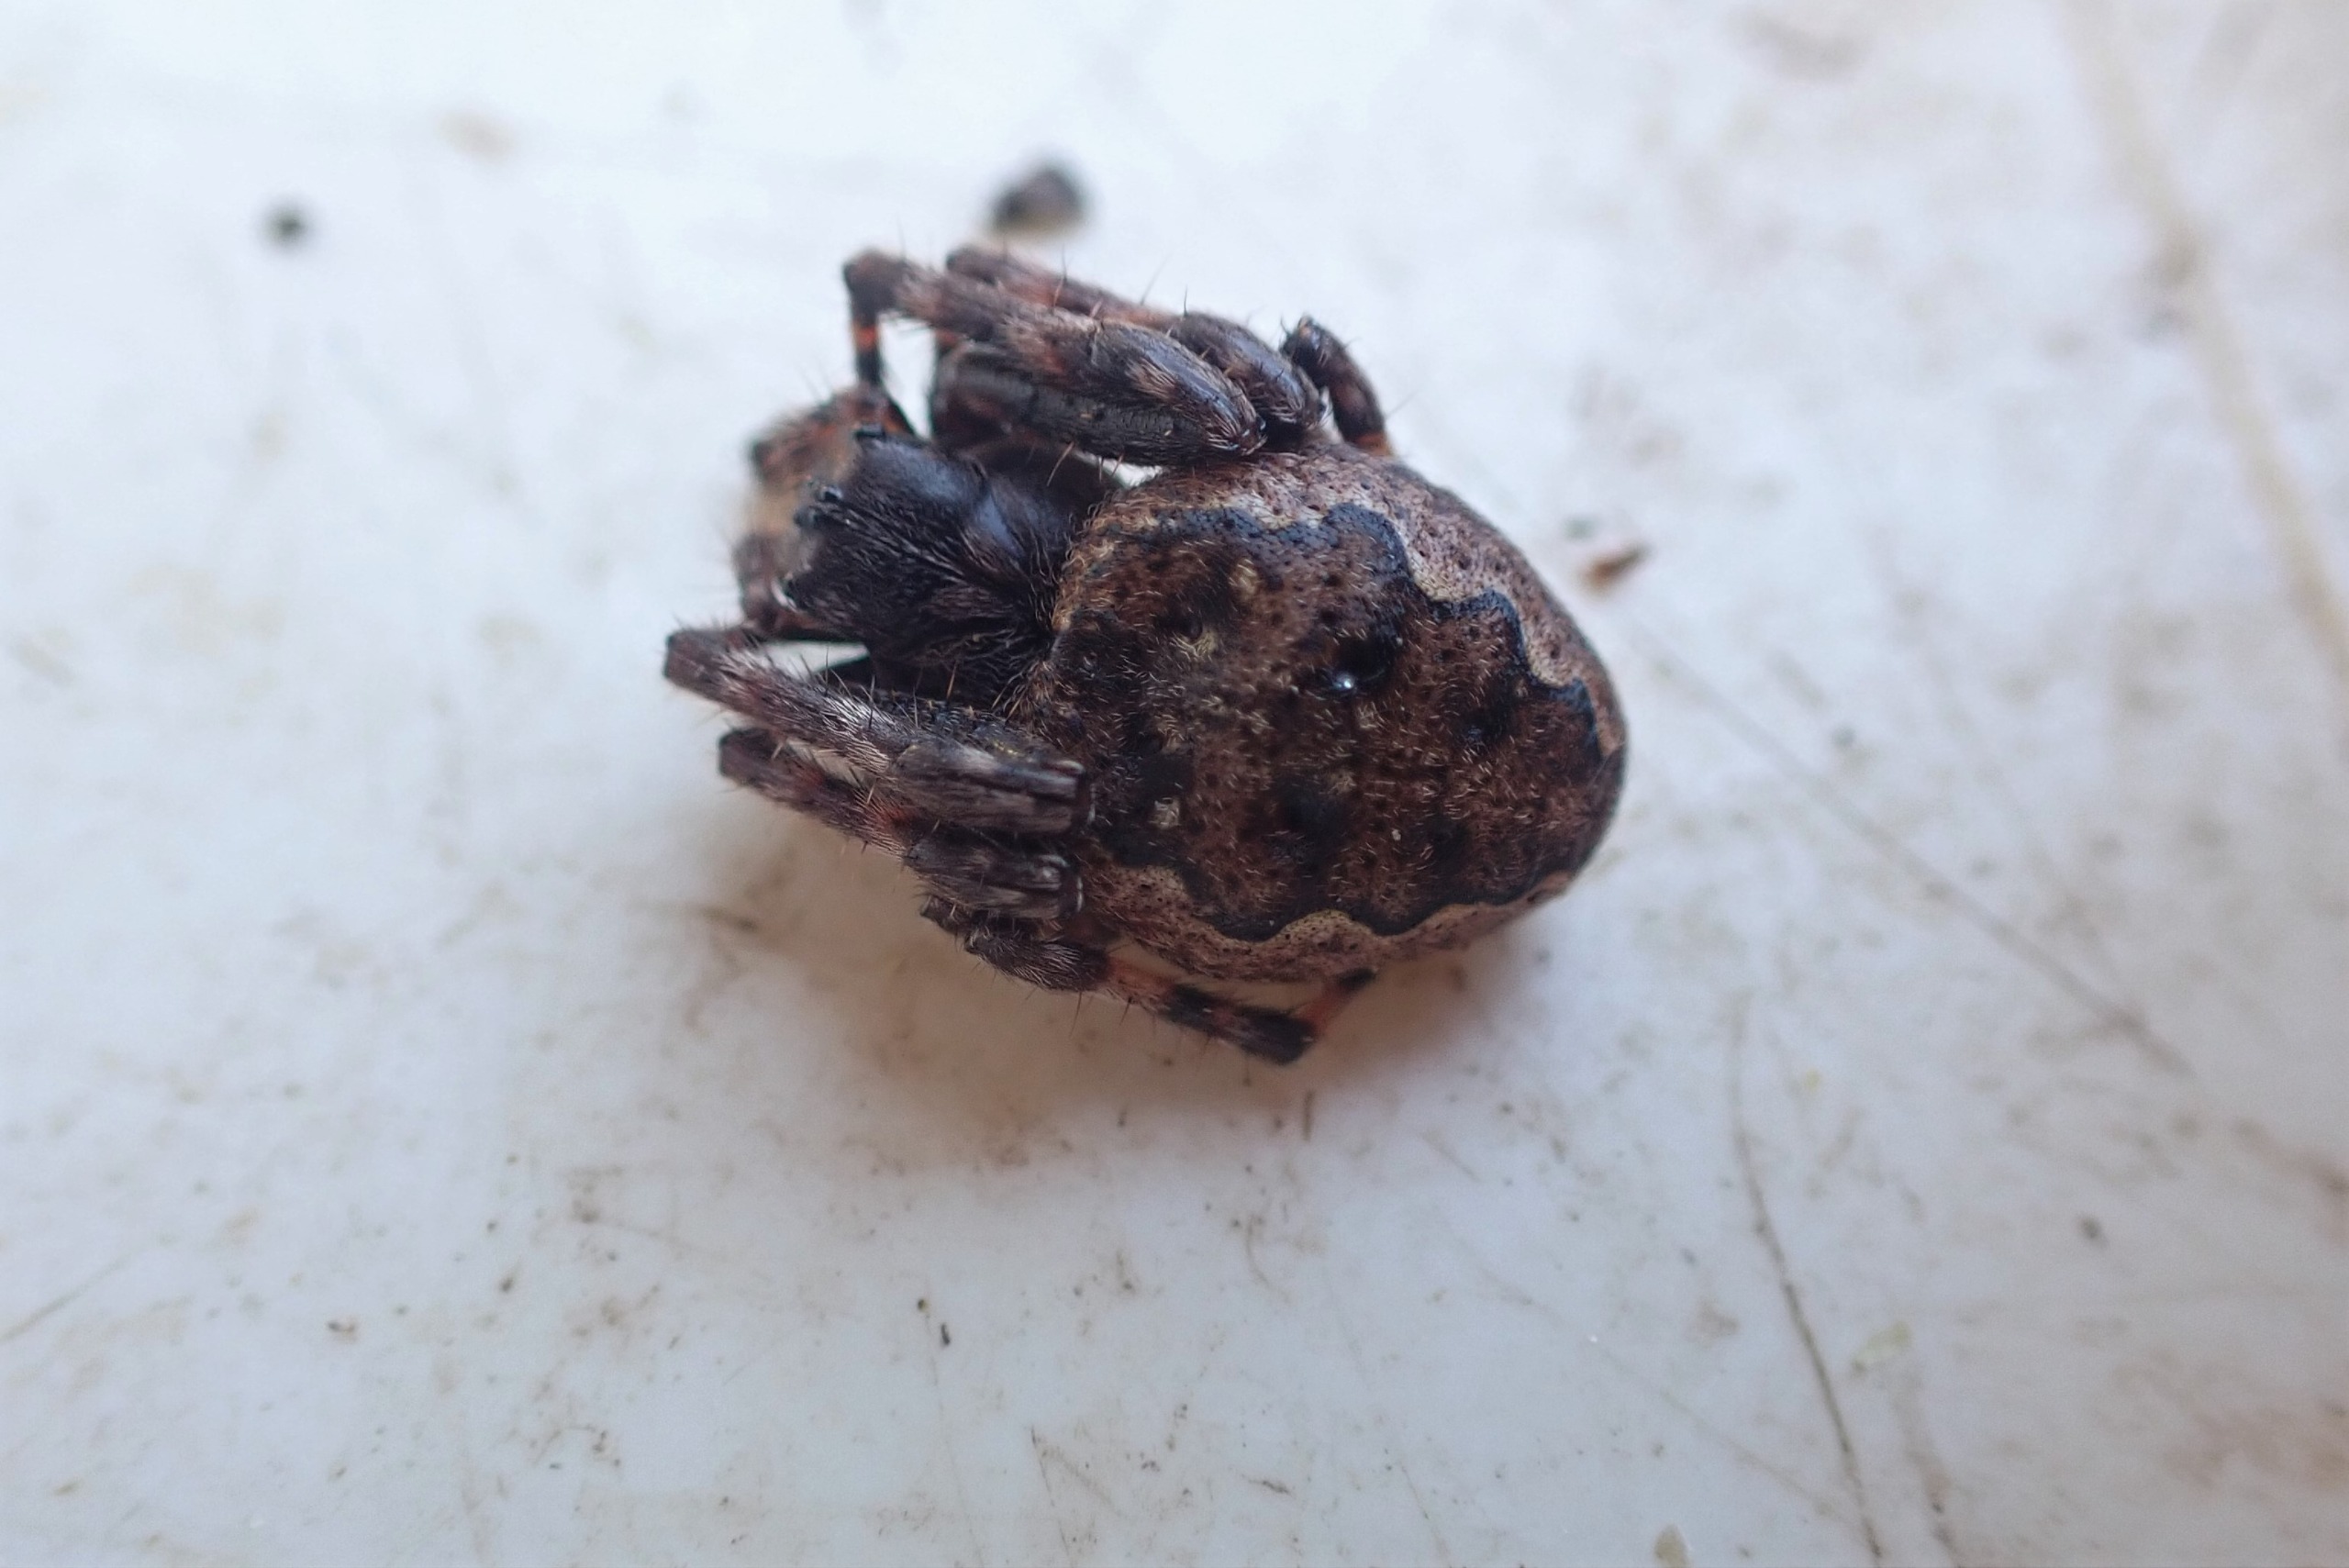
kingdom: Animalia
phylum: Arthropoda
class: Arachnida
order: Araneae
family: Araneidae
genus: Nuctenea
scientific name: Nuctenea umbratica
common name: Flad hjulspinder
